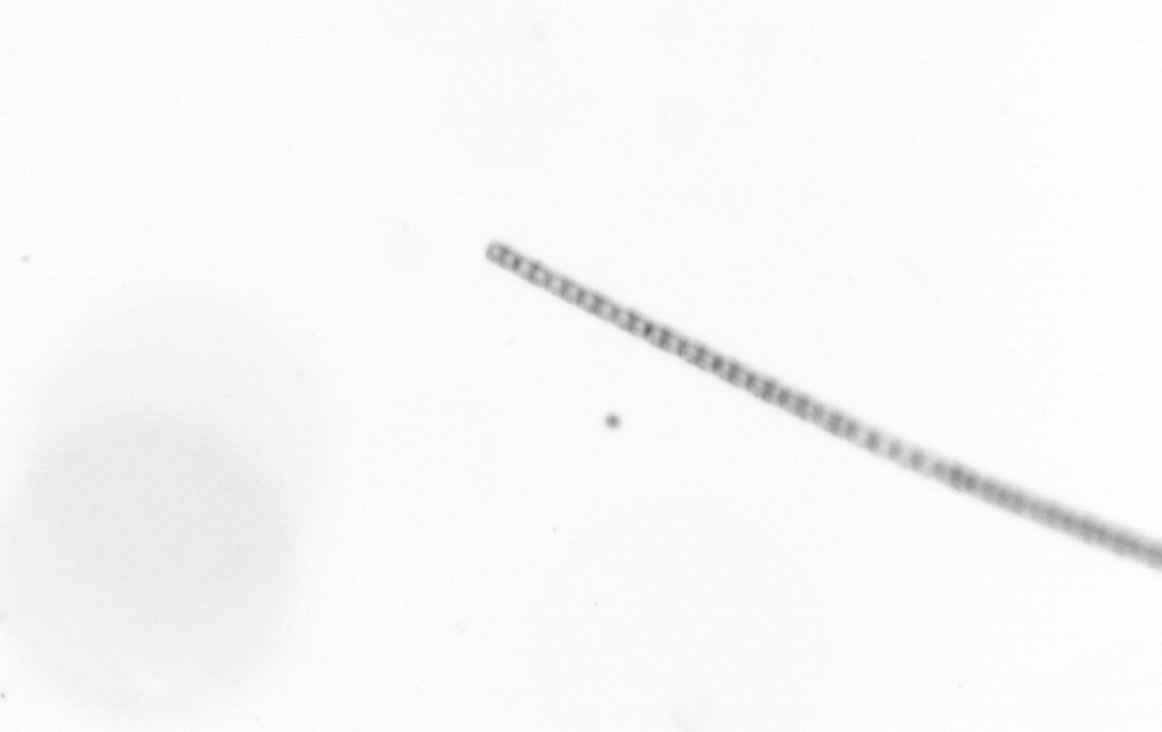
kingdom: Chromista
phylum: Ochrophyta
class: Bacillariophyceae
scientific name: Bacillariophyceae
